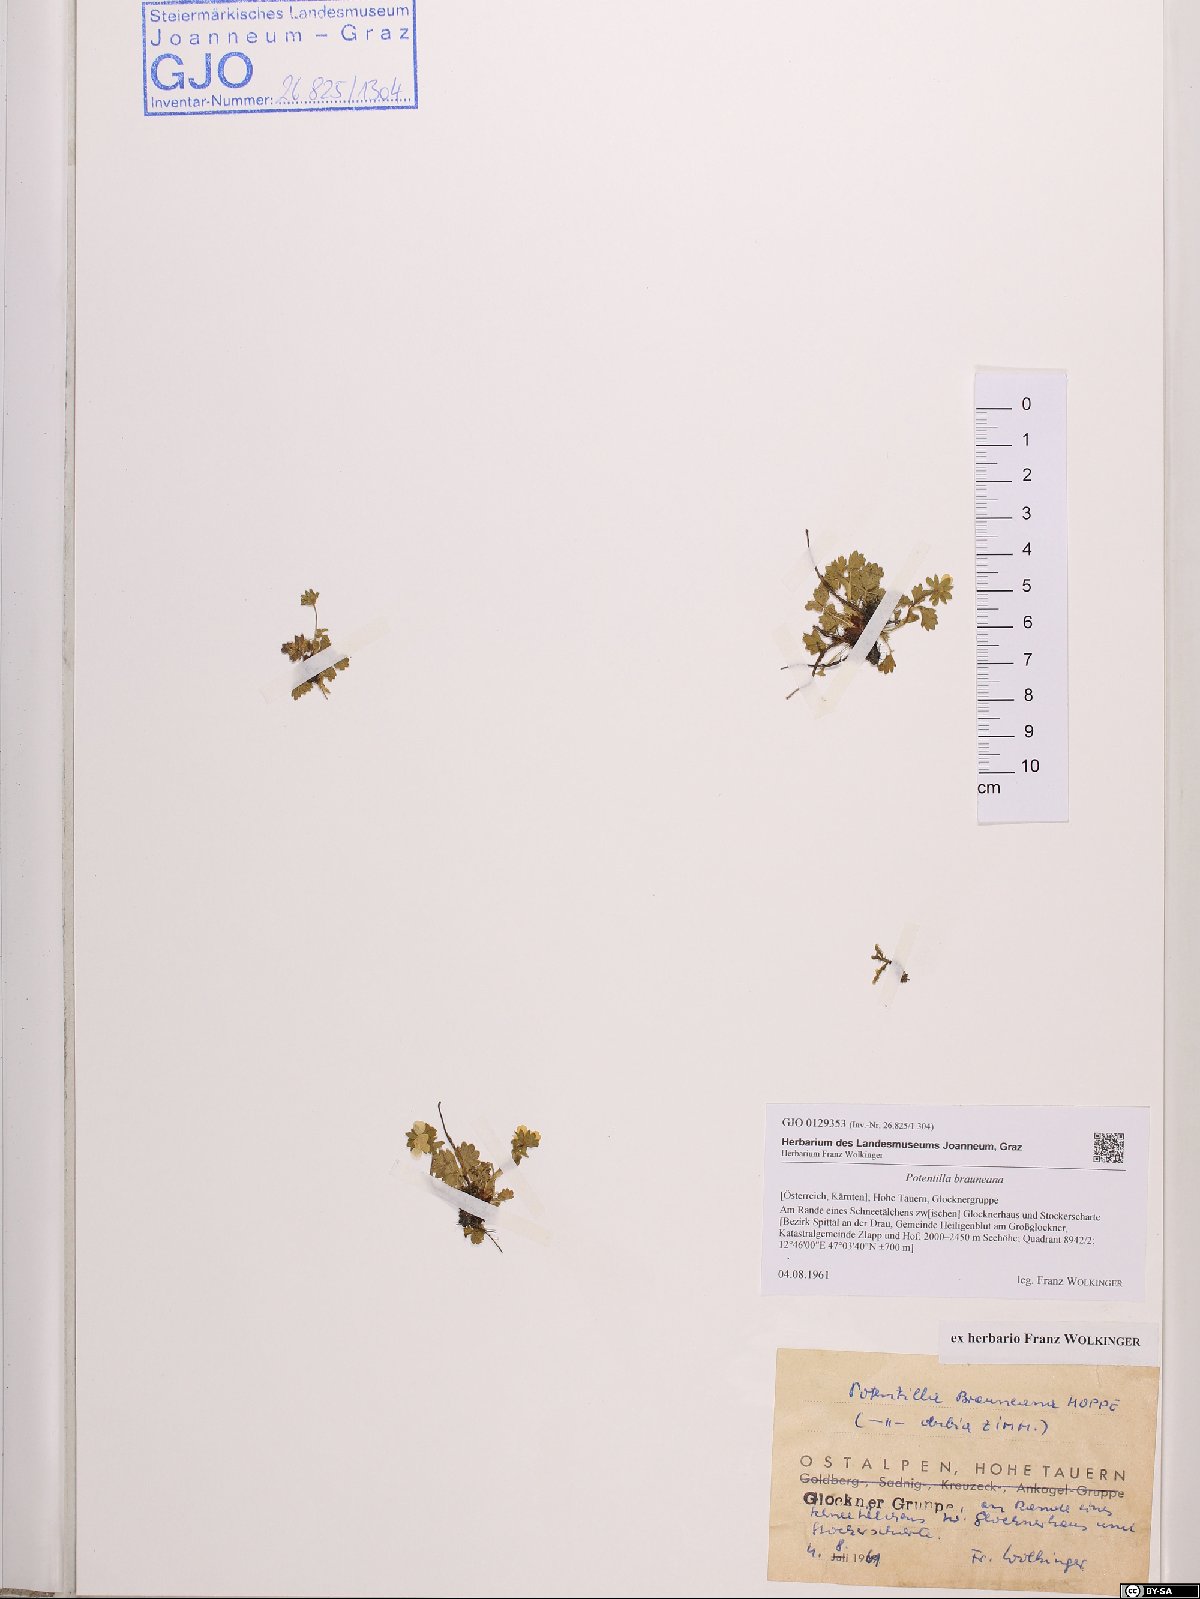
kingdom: Plantae
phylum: Tracheophyta
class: Magnoliopsida
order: Rosales
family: Rosaceae
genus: Potentilla
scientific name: Potentilla brauneana
